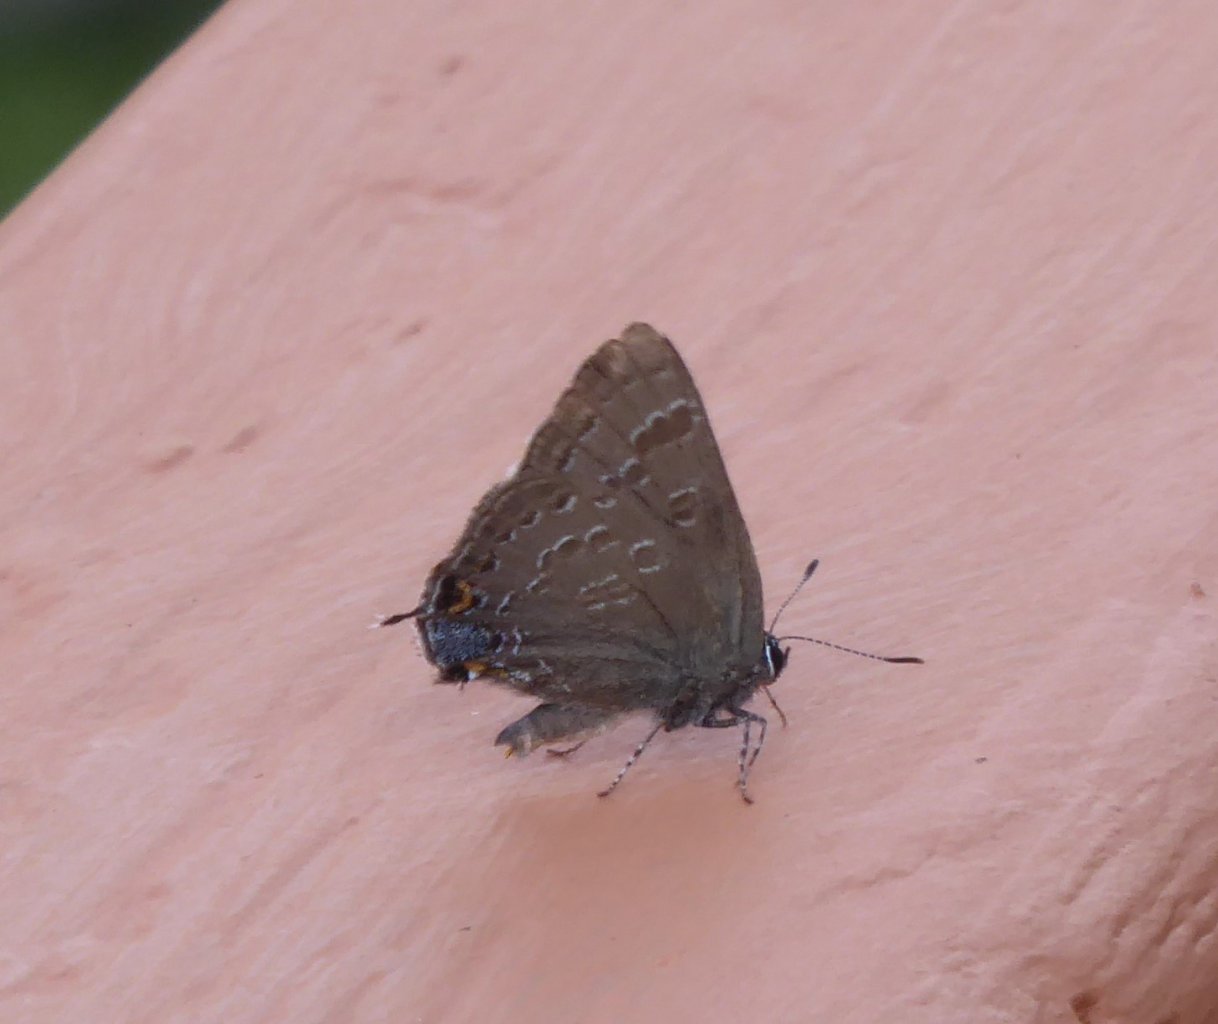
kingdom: Animalia
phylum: Arthropoda
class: Insecta
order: Lepidoptera
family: Lycaenidae
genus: Satyrium
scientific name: Satyrium calanus
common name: Banded Hairstreak
